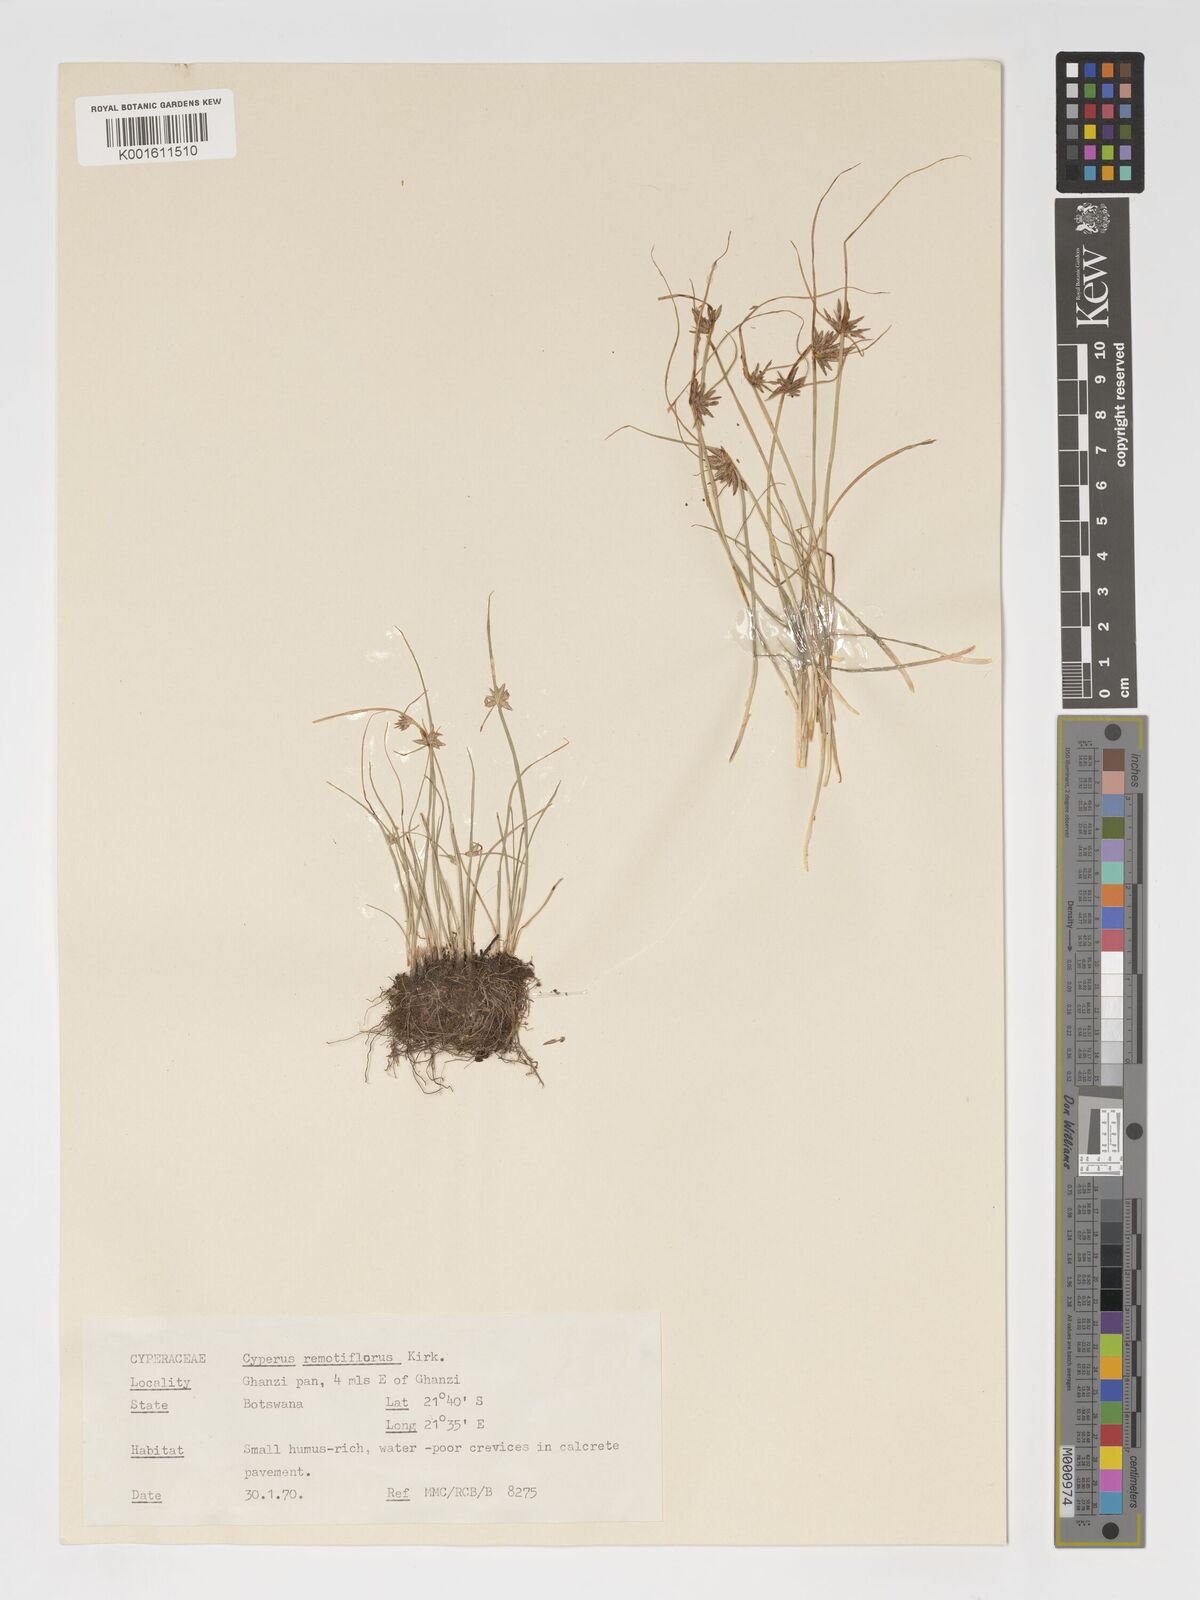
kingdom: Plantae
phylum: Tracheophyta
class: Liliopsida
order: Poales
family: Cyperaceae
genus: Cyperus
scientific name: Cyperus remotiflorus
